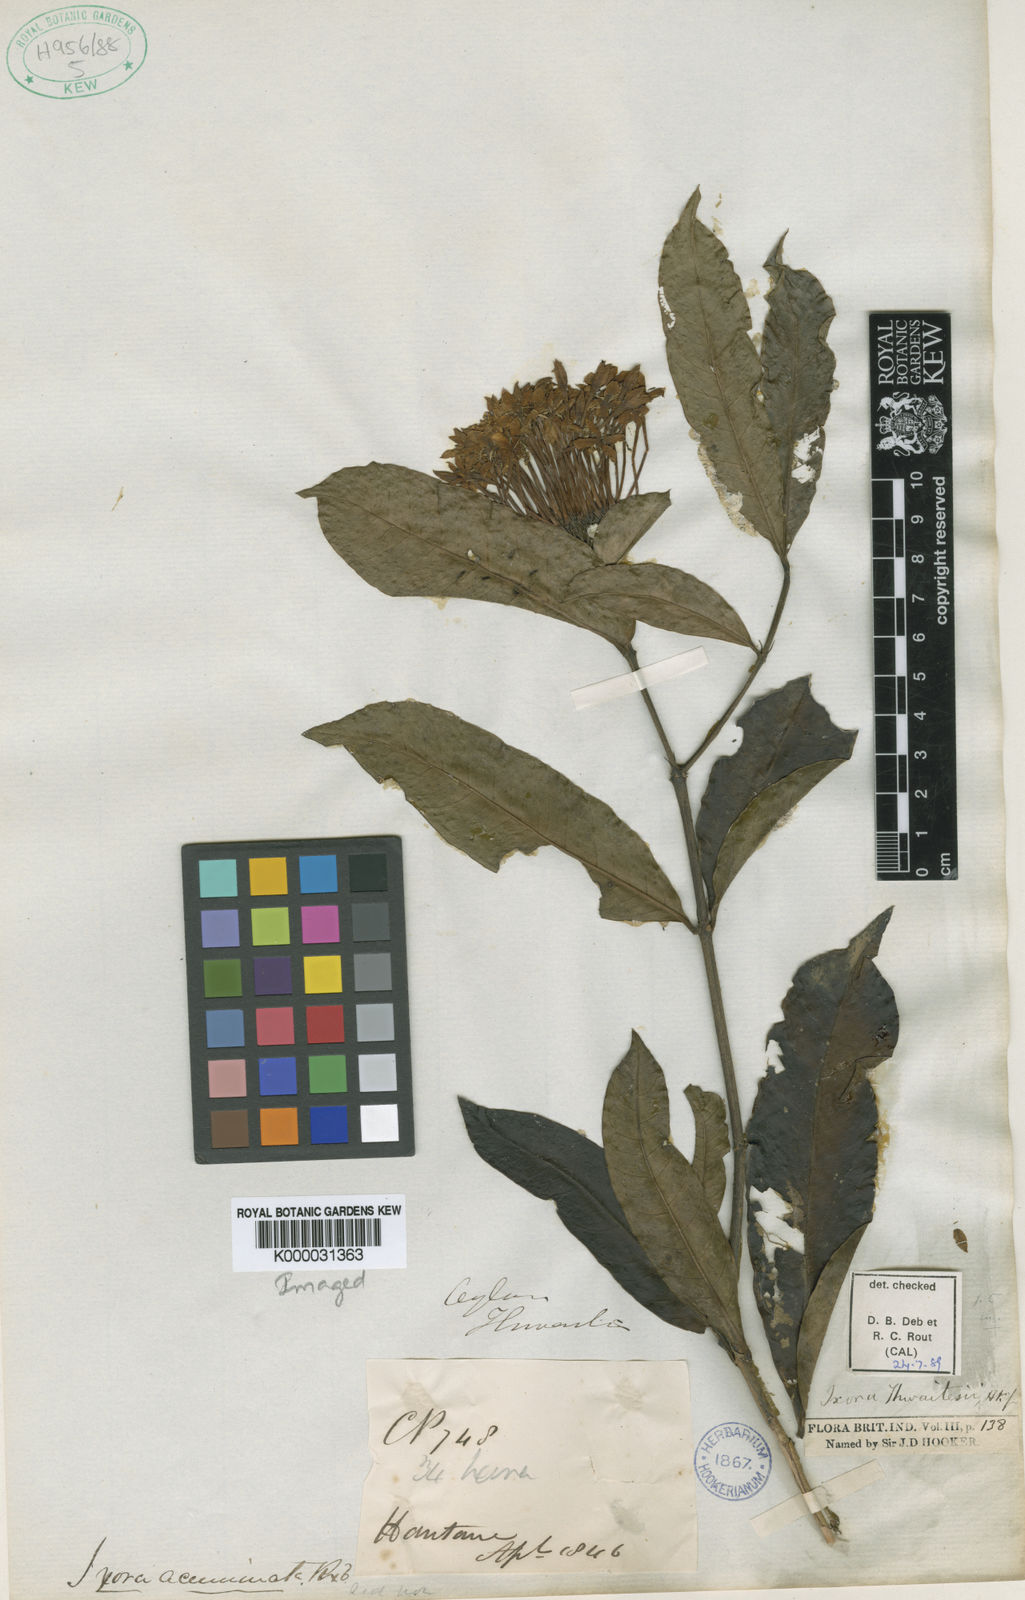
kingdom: Plantae
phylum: Tracheophyta
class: Magnoliopsida
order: Gentianales
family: Rubiaceae
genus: Ixora
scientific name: Ixora thwaitesii
